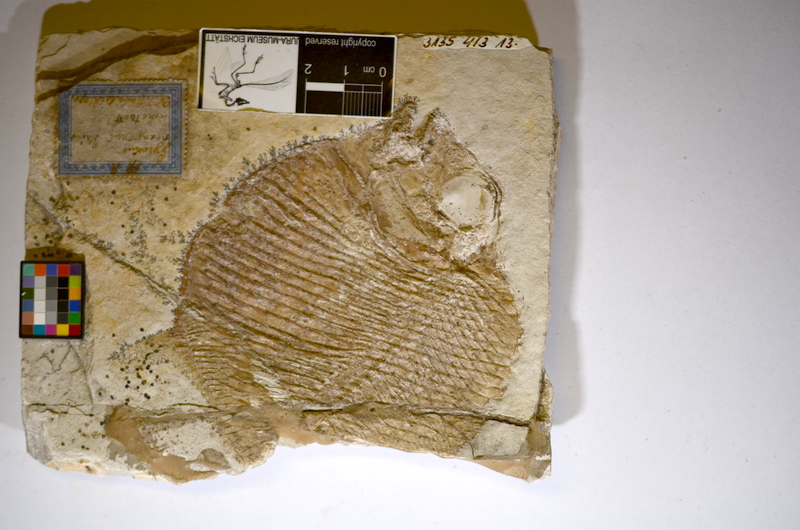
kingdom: Animalia
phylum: Chordata
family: Gyrodontidae
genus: Gyrodus
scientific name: Gyrodus hexagonus
